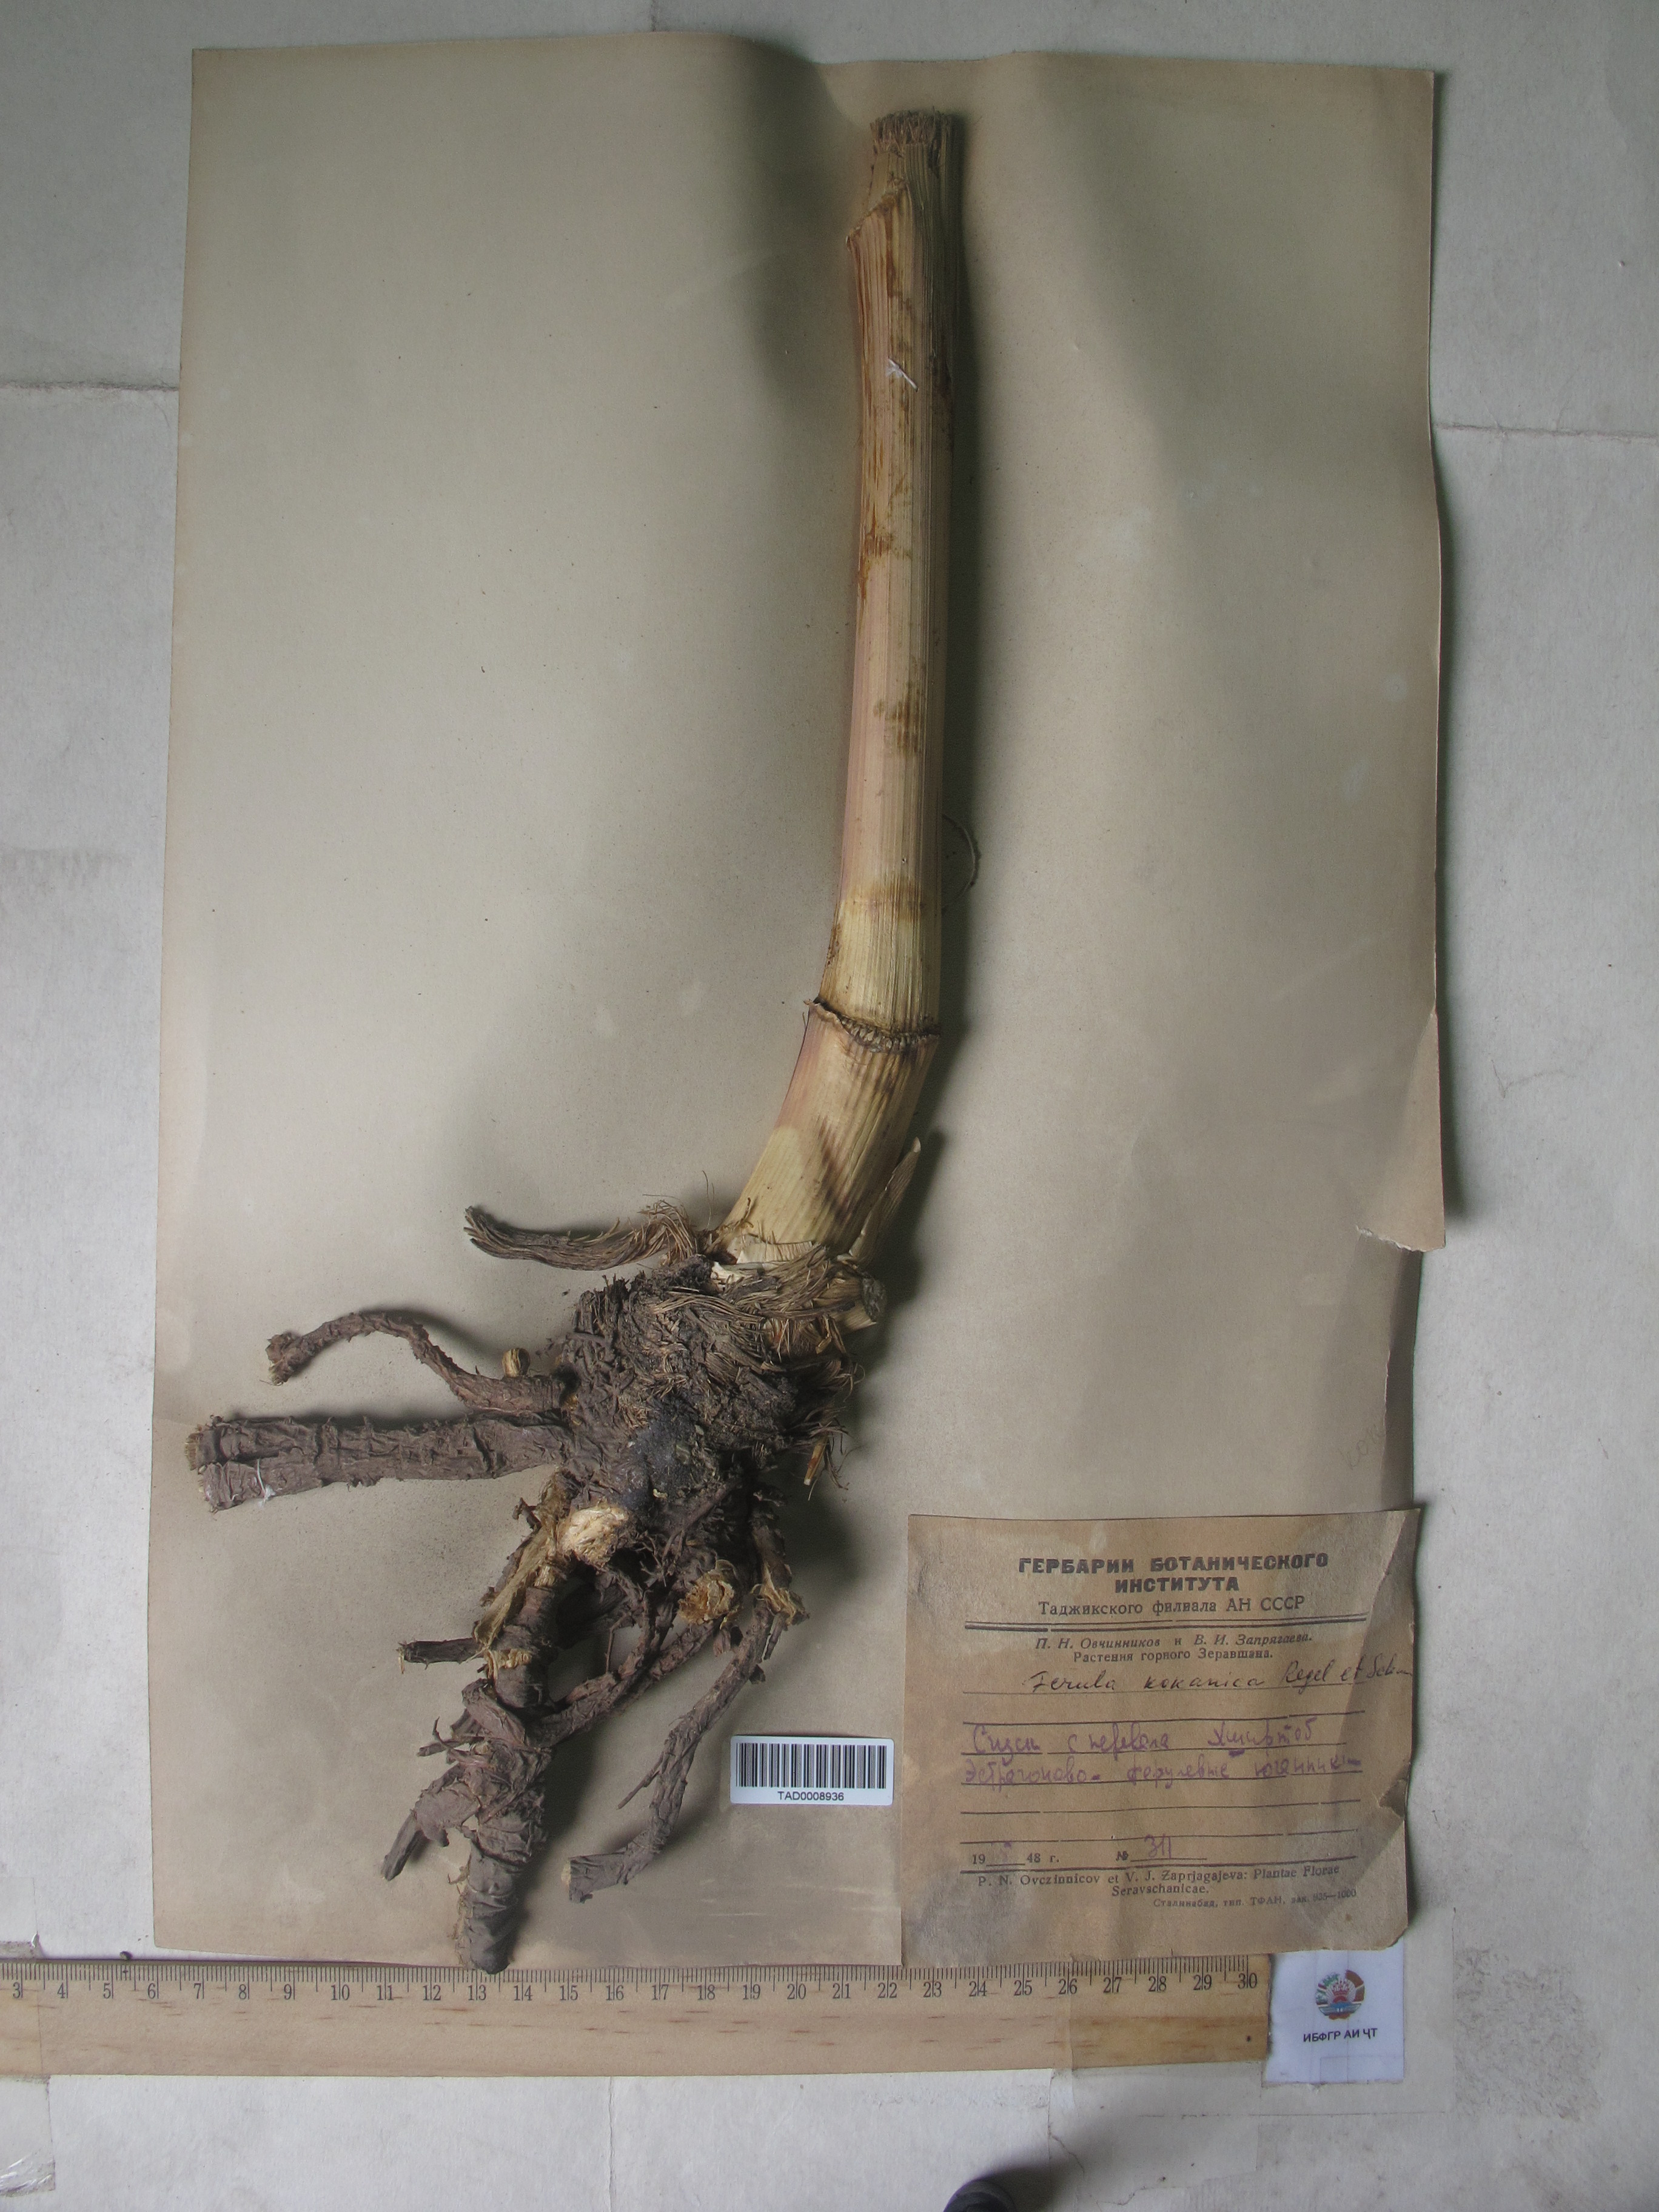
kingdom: Plantae
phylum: Tracheophyta
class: Magnoliopsida
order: Apiales
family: Apiaceae
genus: Ferula
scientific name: Ferula kokanica
